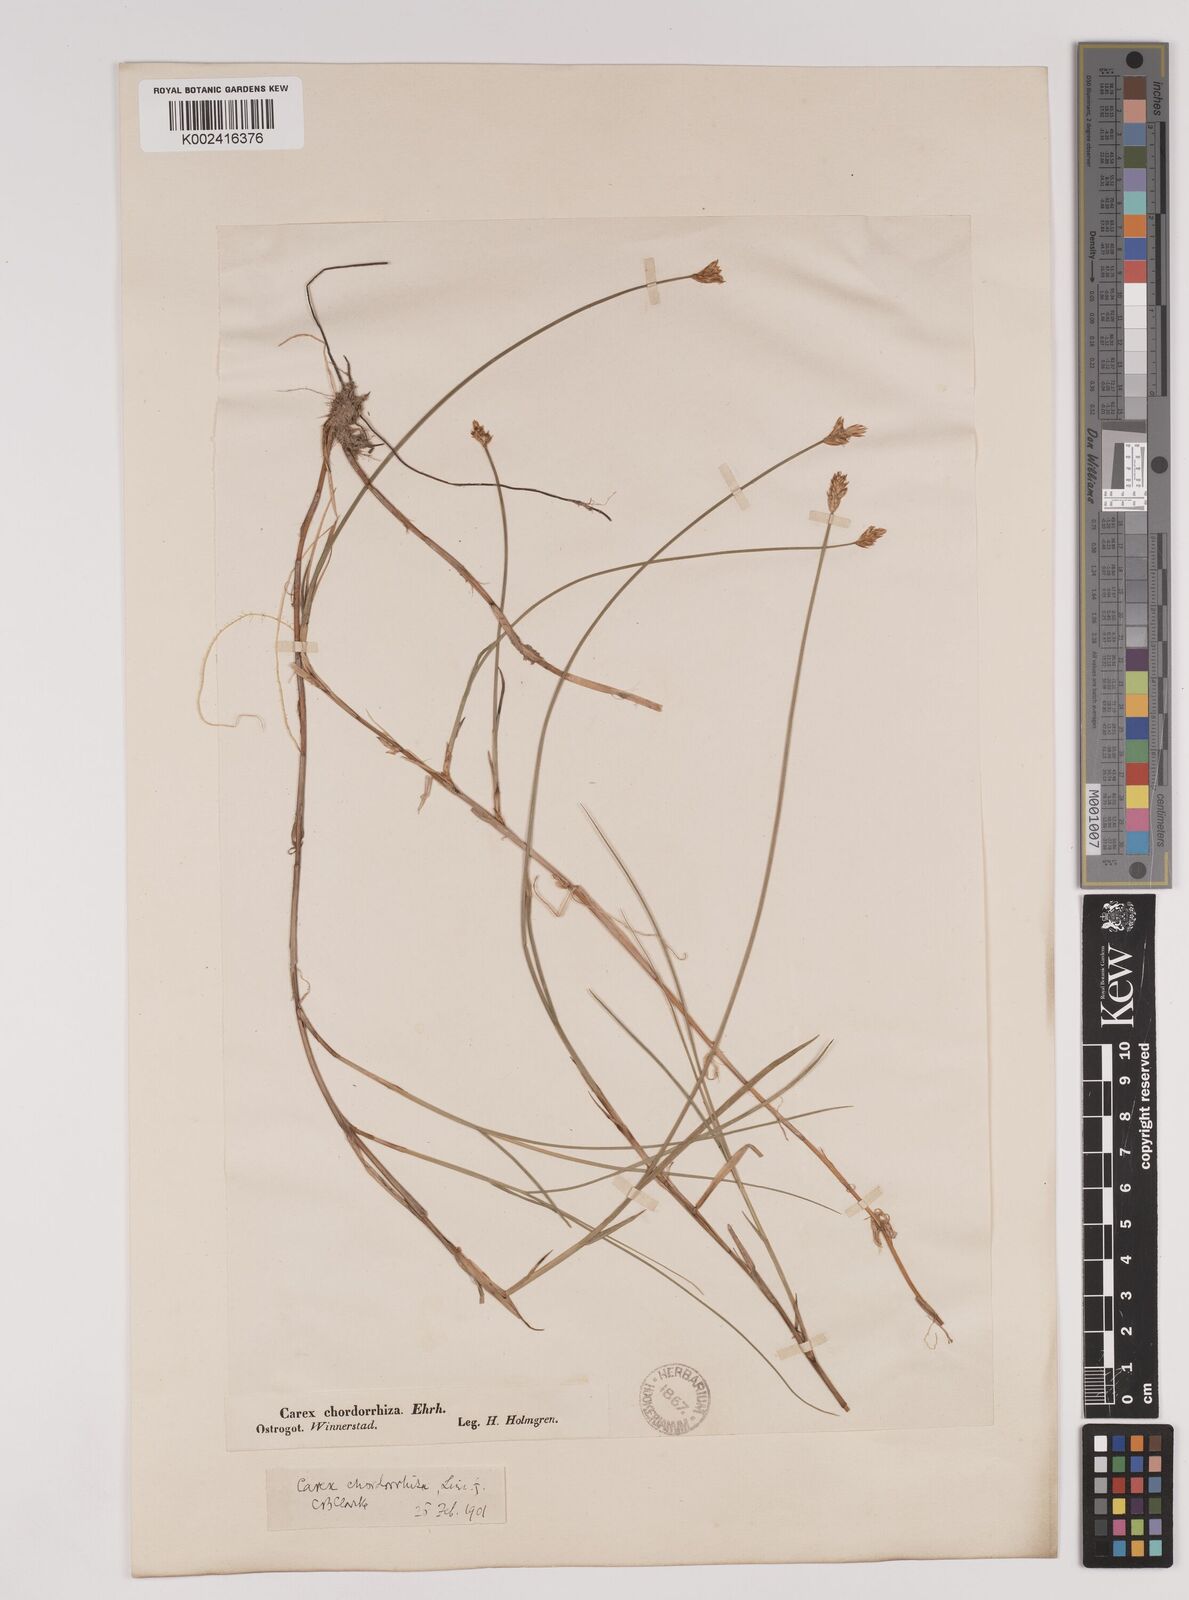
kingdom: Plantae
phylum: Tracheophyta
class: Liliopsida
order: Poales
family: Cyperaceae
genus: Carex
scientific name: Carex chordorrhiza
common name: String sedge
